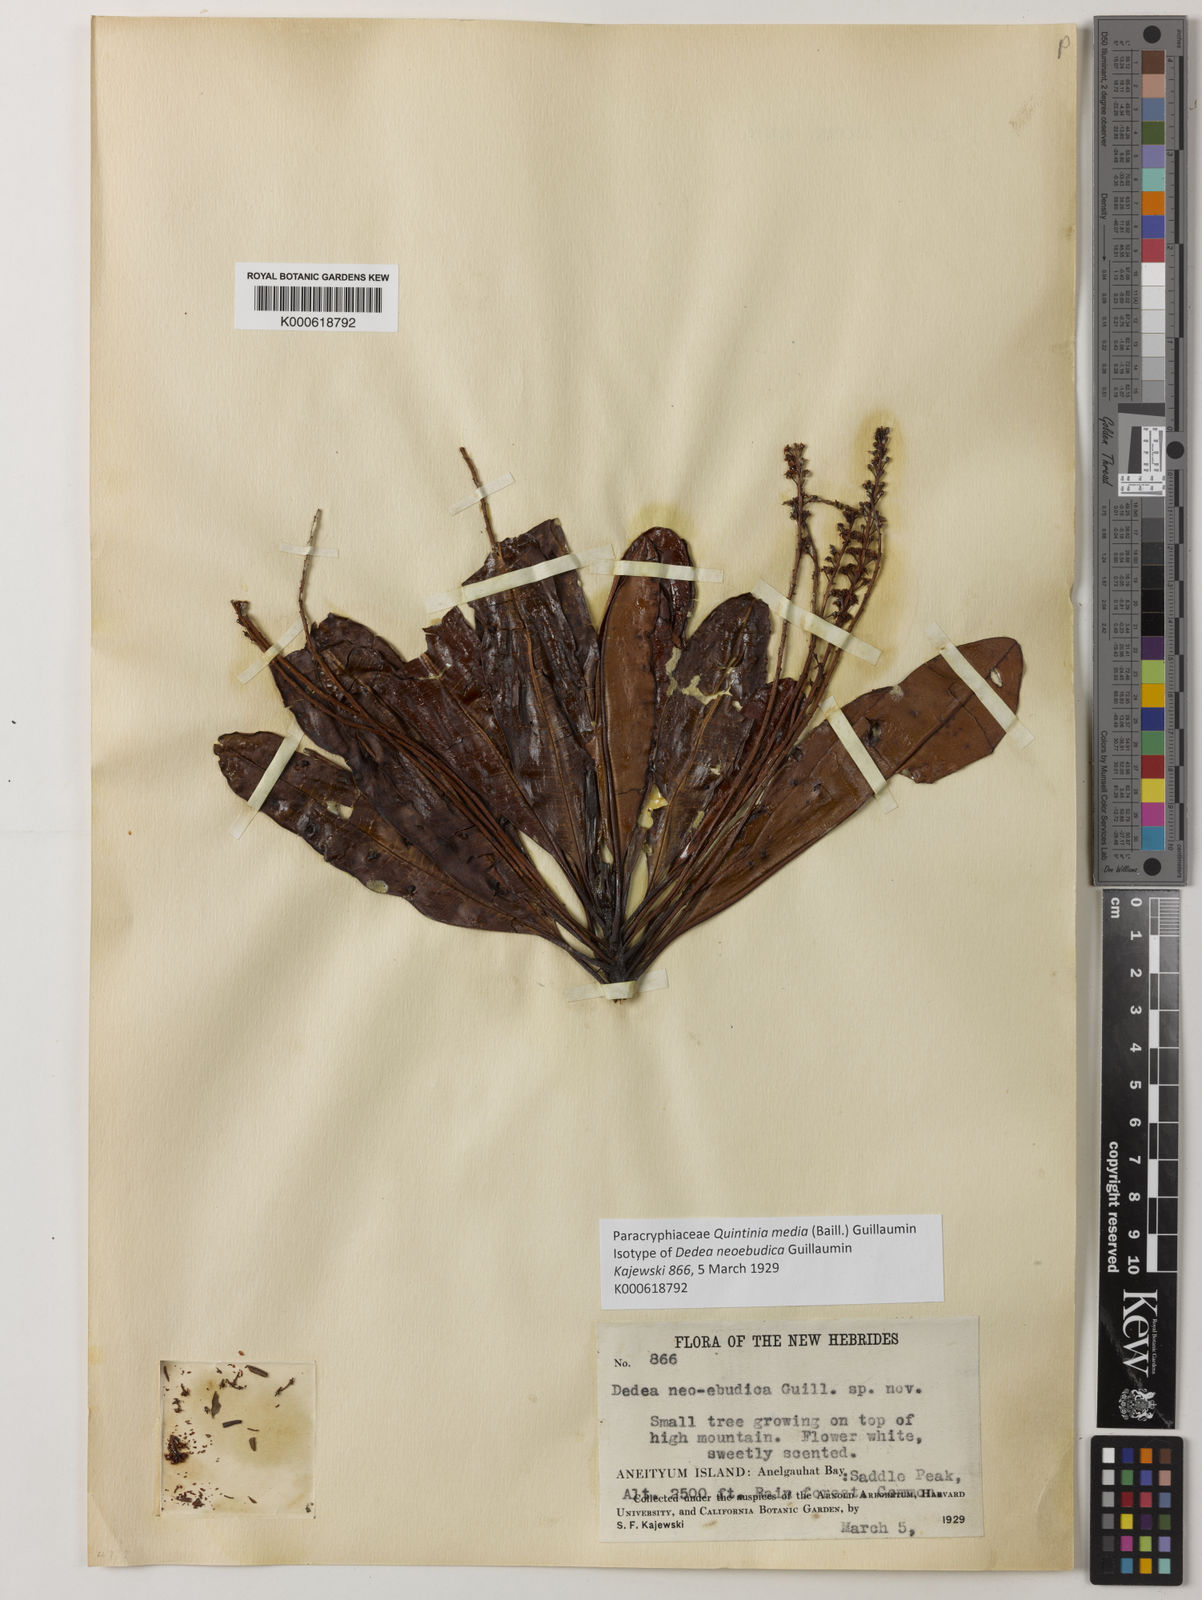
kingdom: Plantae
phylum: Tracheophyta
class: Magnoliopsida
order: Paracryphiales
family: Paracryphiaceae
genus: Quintinia
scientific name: Quintinia media
